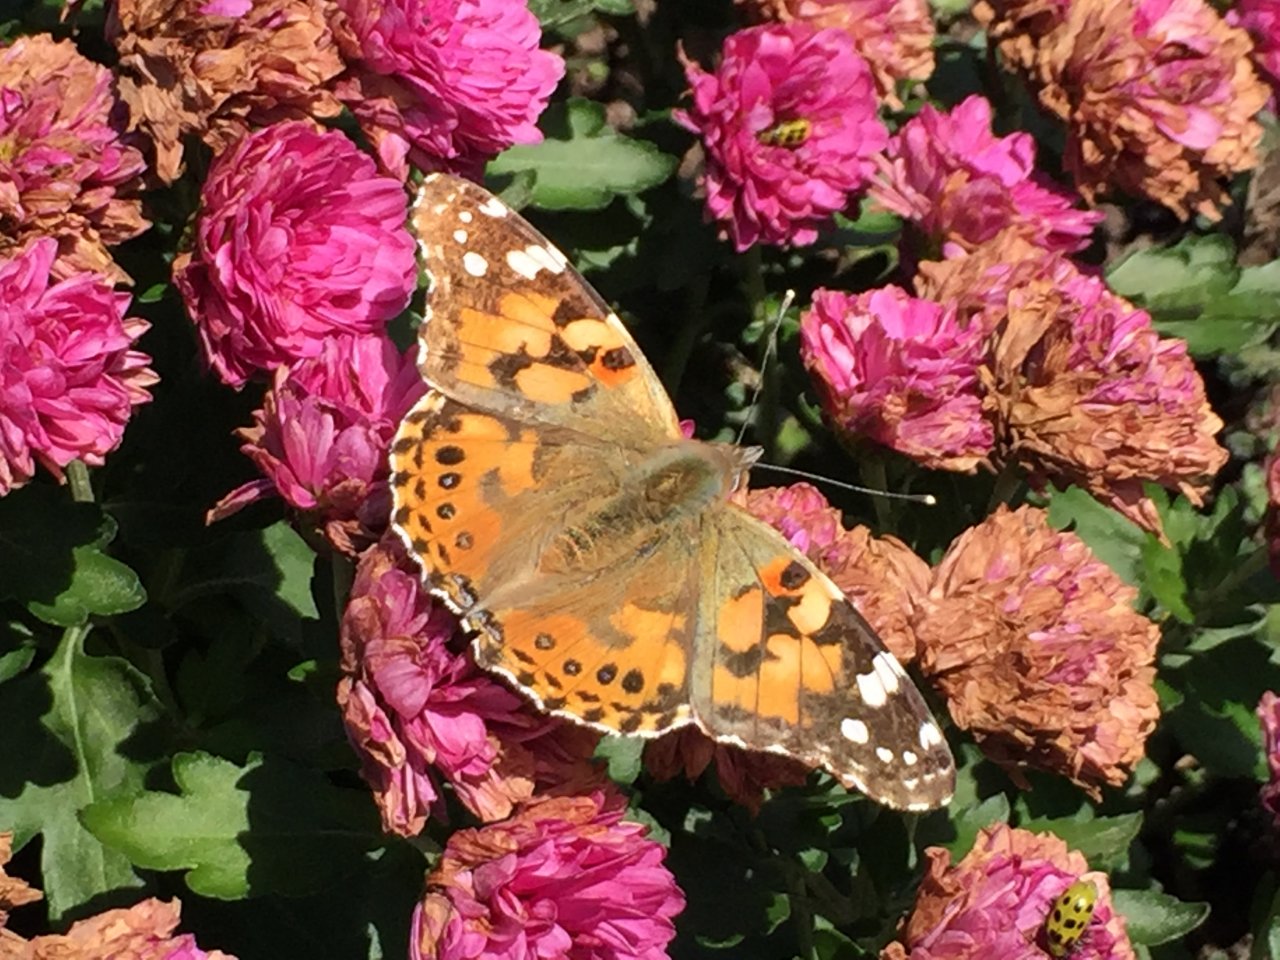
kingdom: Animalia
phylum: Arthropoda
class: Insecta
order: Lepidoptera
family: Nymphalidae
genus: Vanessa
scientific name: Vanessa cardui
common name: Painted Lady
